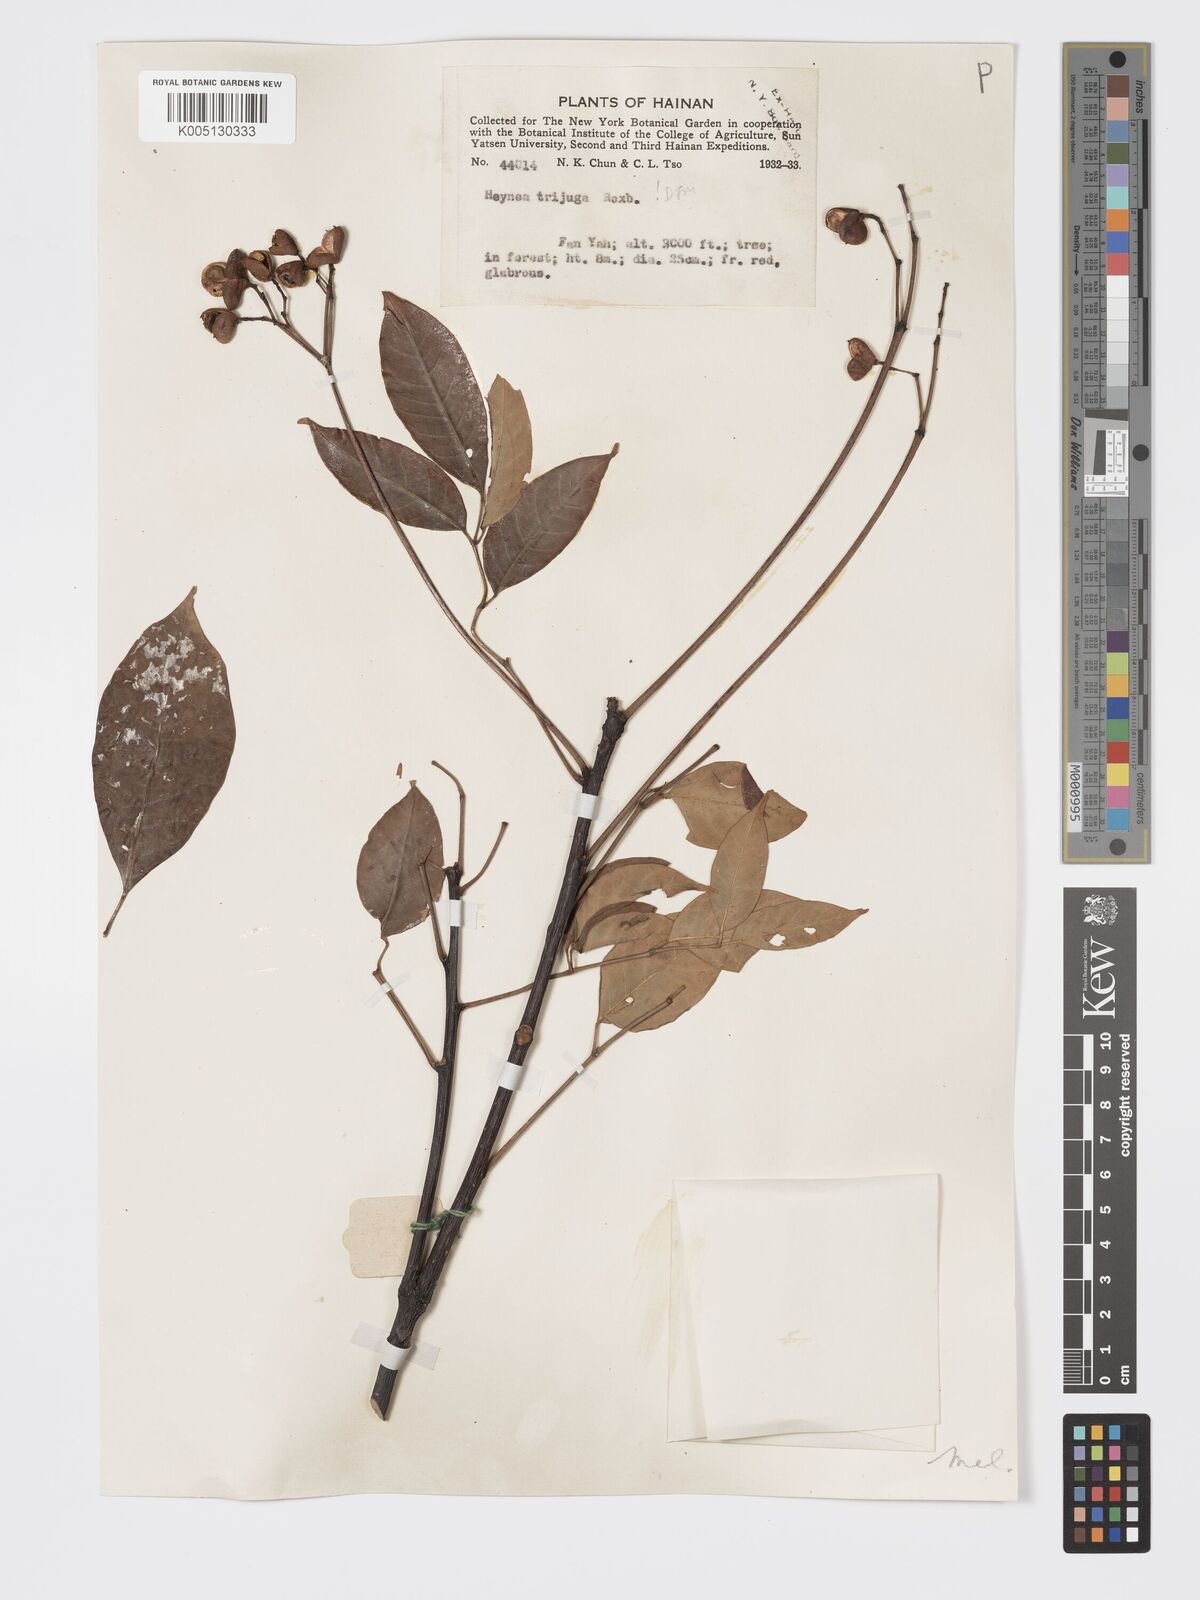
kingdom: Plantae
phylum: Tracheophyta
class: Magnoliopsida
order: Sapindales
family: Meliaceae
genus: Heynea
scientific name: Heynea trijuga
